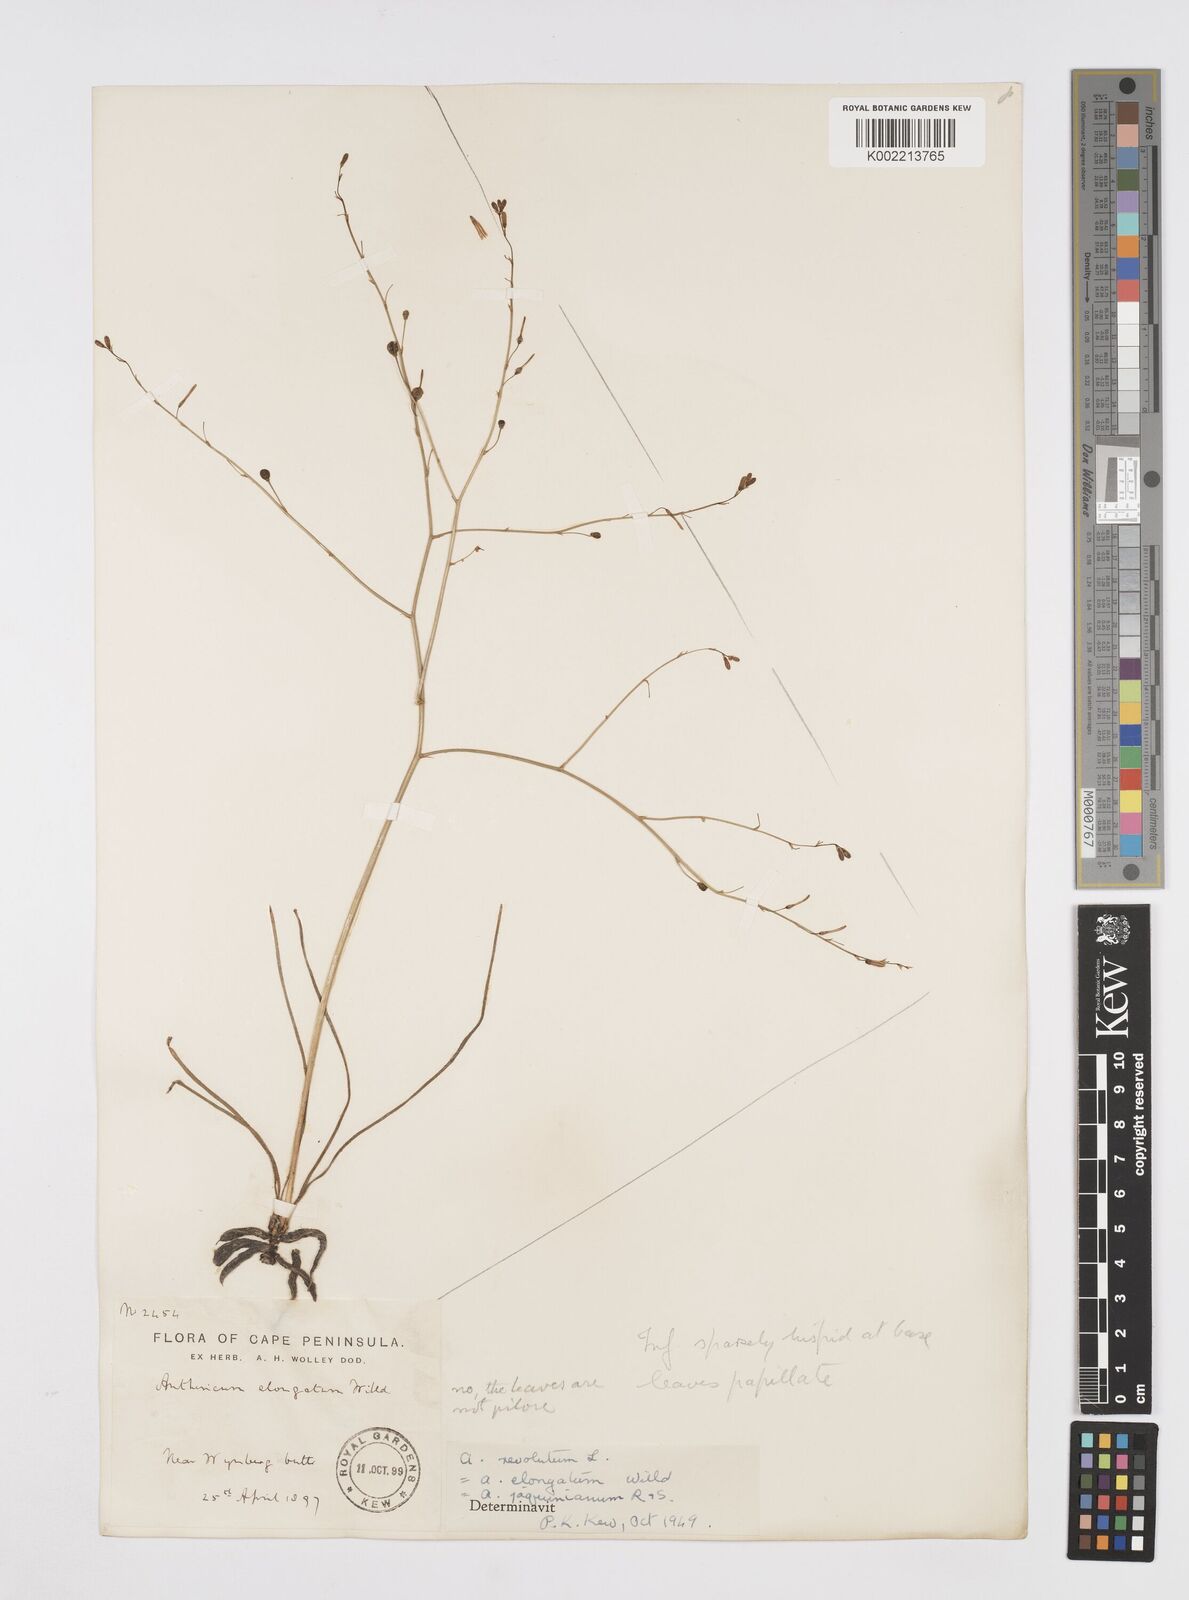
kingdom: Plantae
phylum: Tracheophyta
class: Liliopsida
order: Asparagales
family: Asphodelaceae
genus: Trachyandra
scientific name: Trachyandra revoluta
